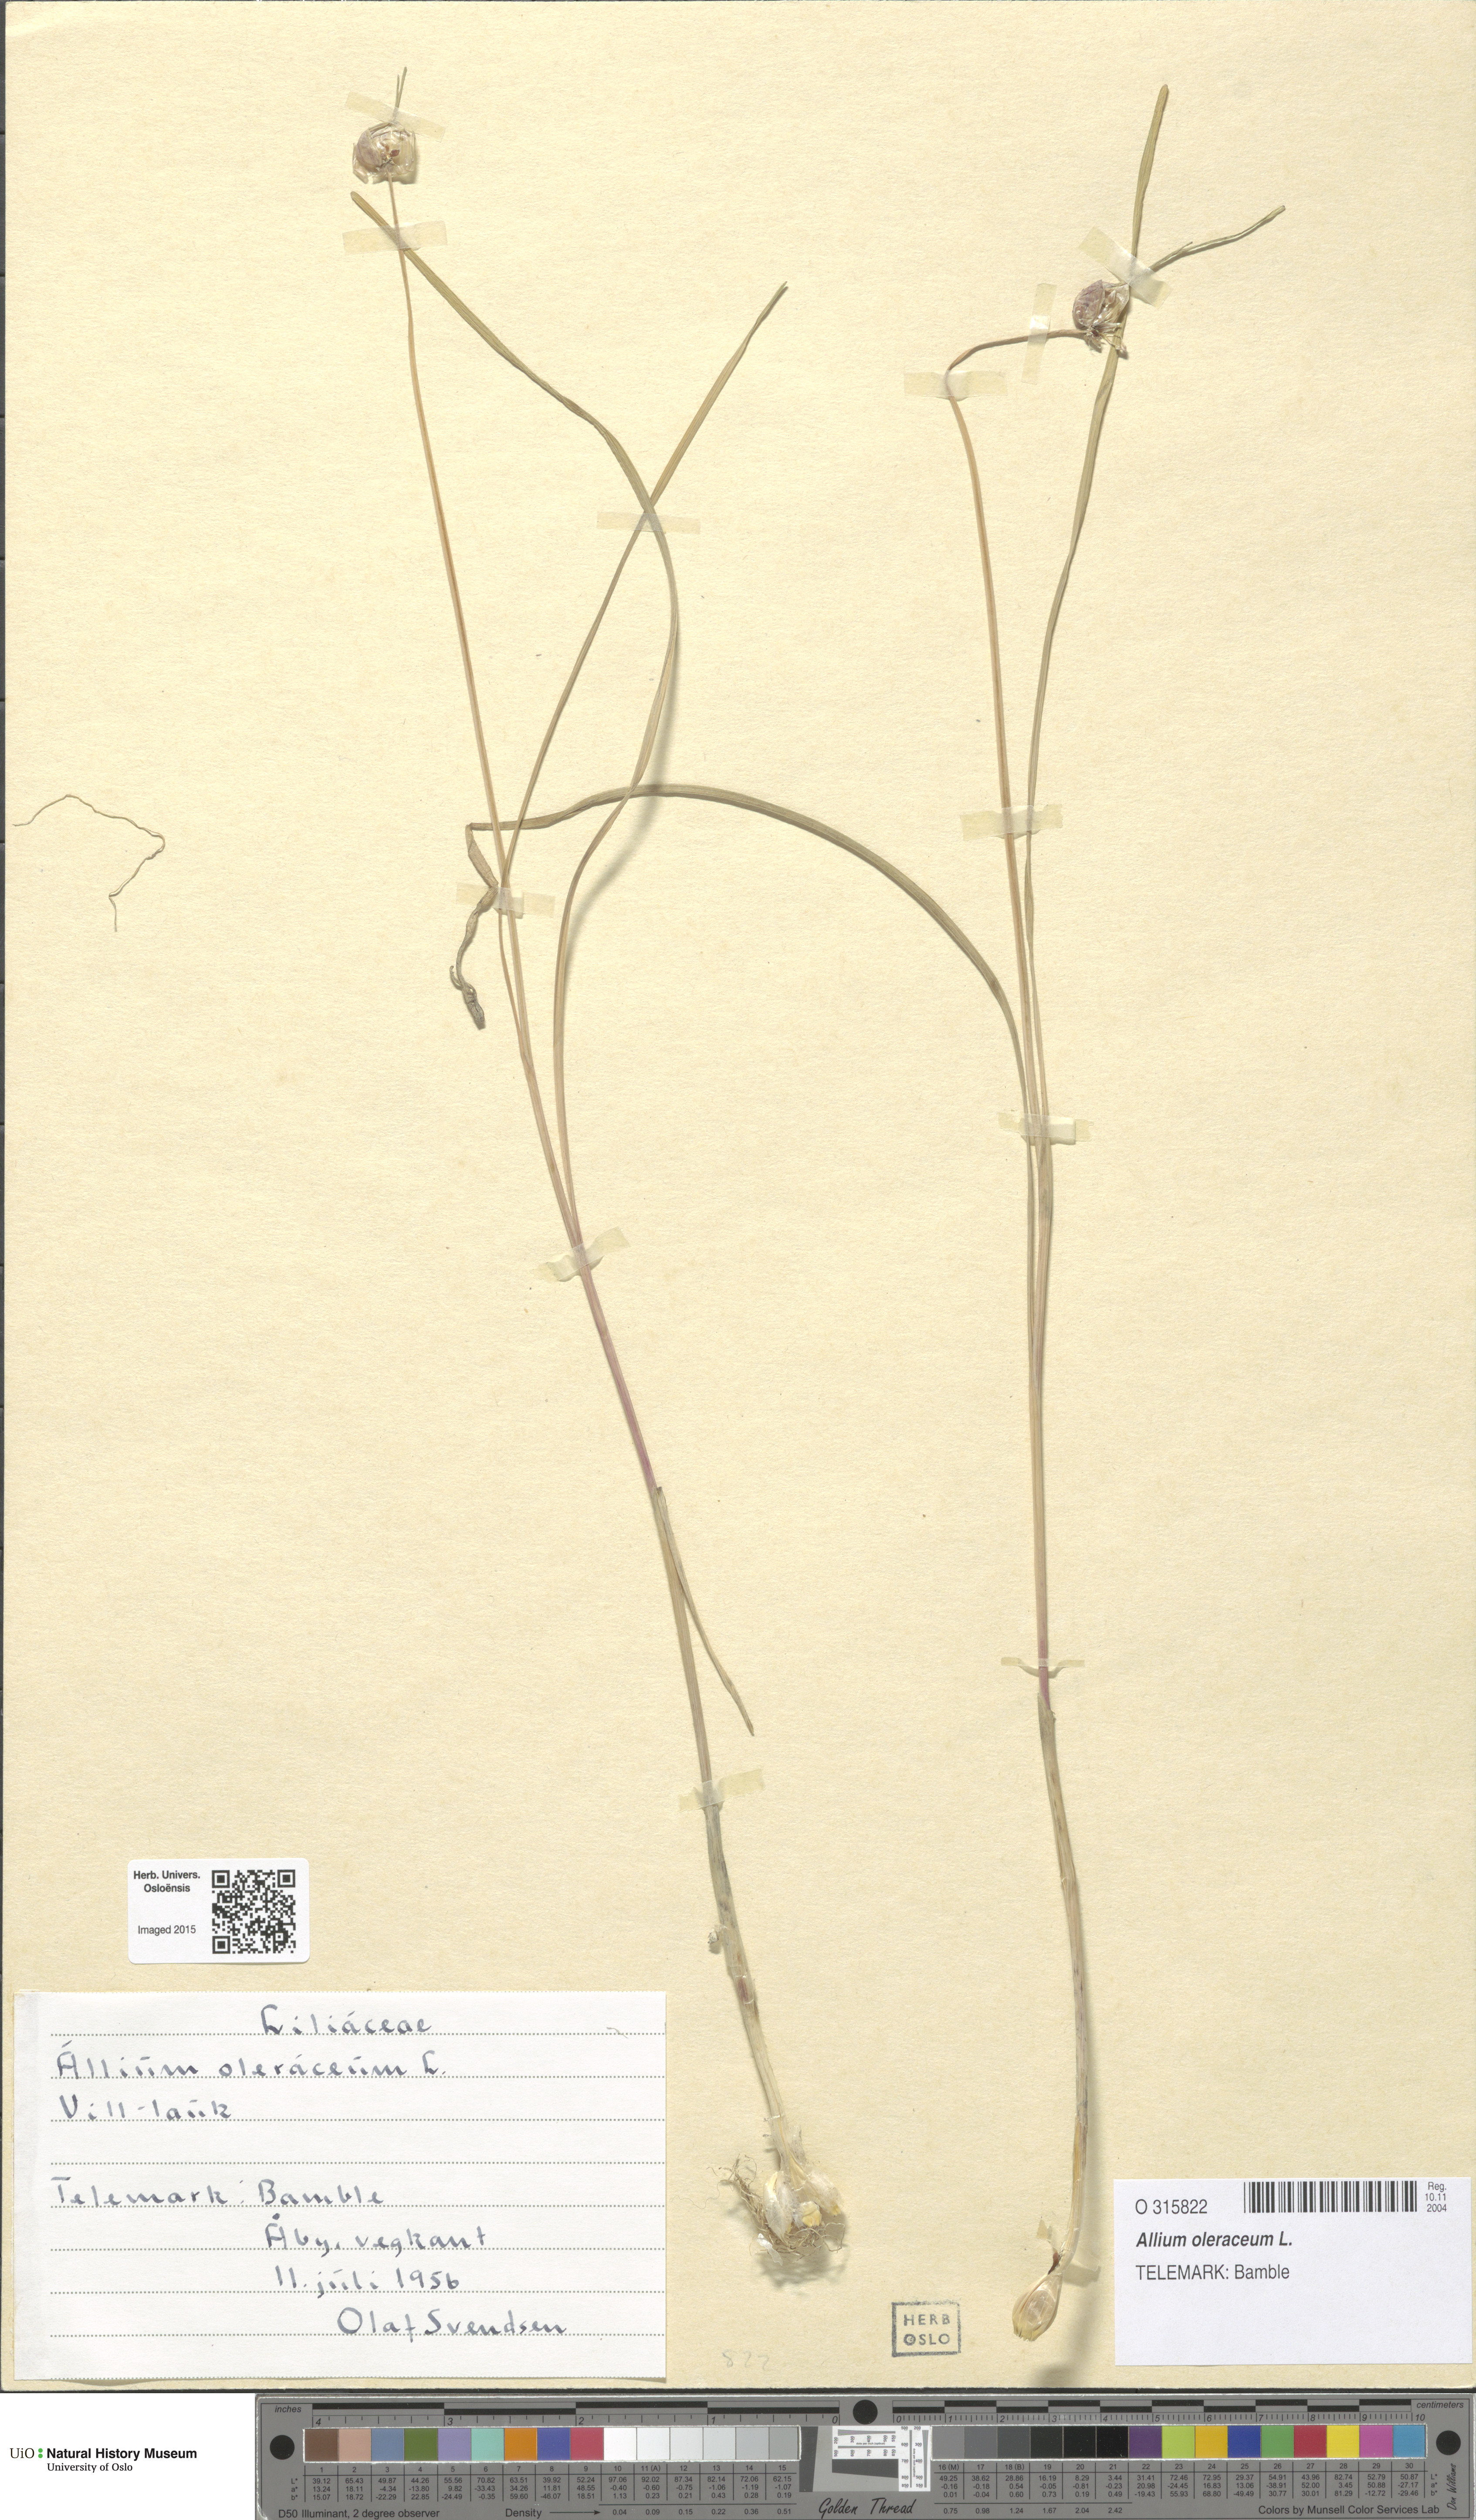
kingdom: Plantae
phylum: Tracheophyta
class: Liliopsida
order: Asparagales
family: Amaryllidaceae
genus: Allium
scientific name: Allium oleraceum
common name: Field garlic
